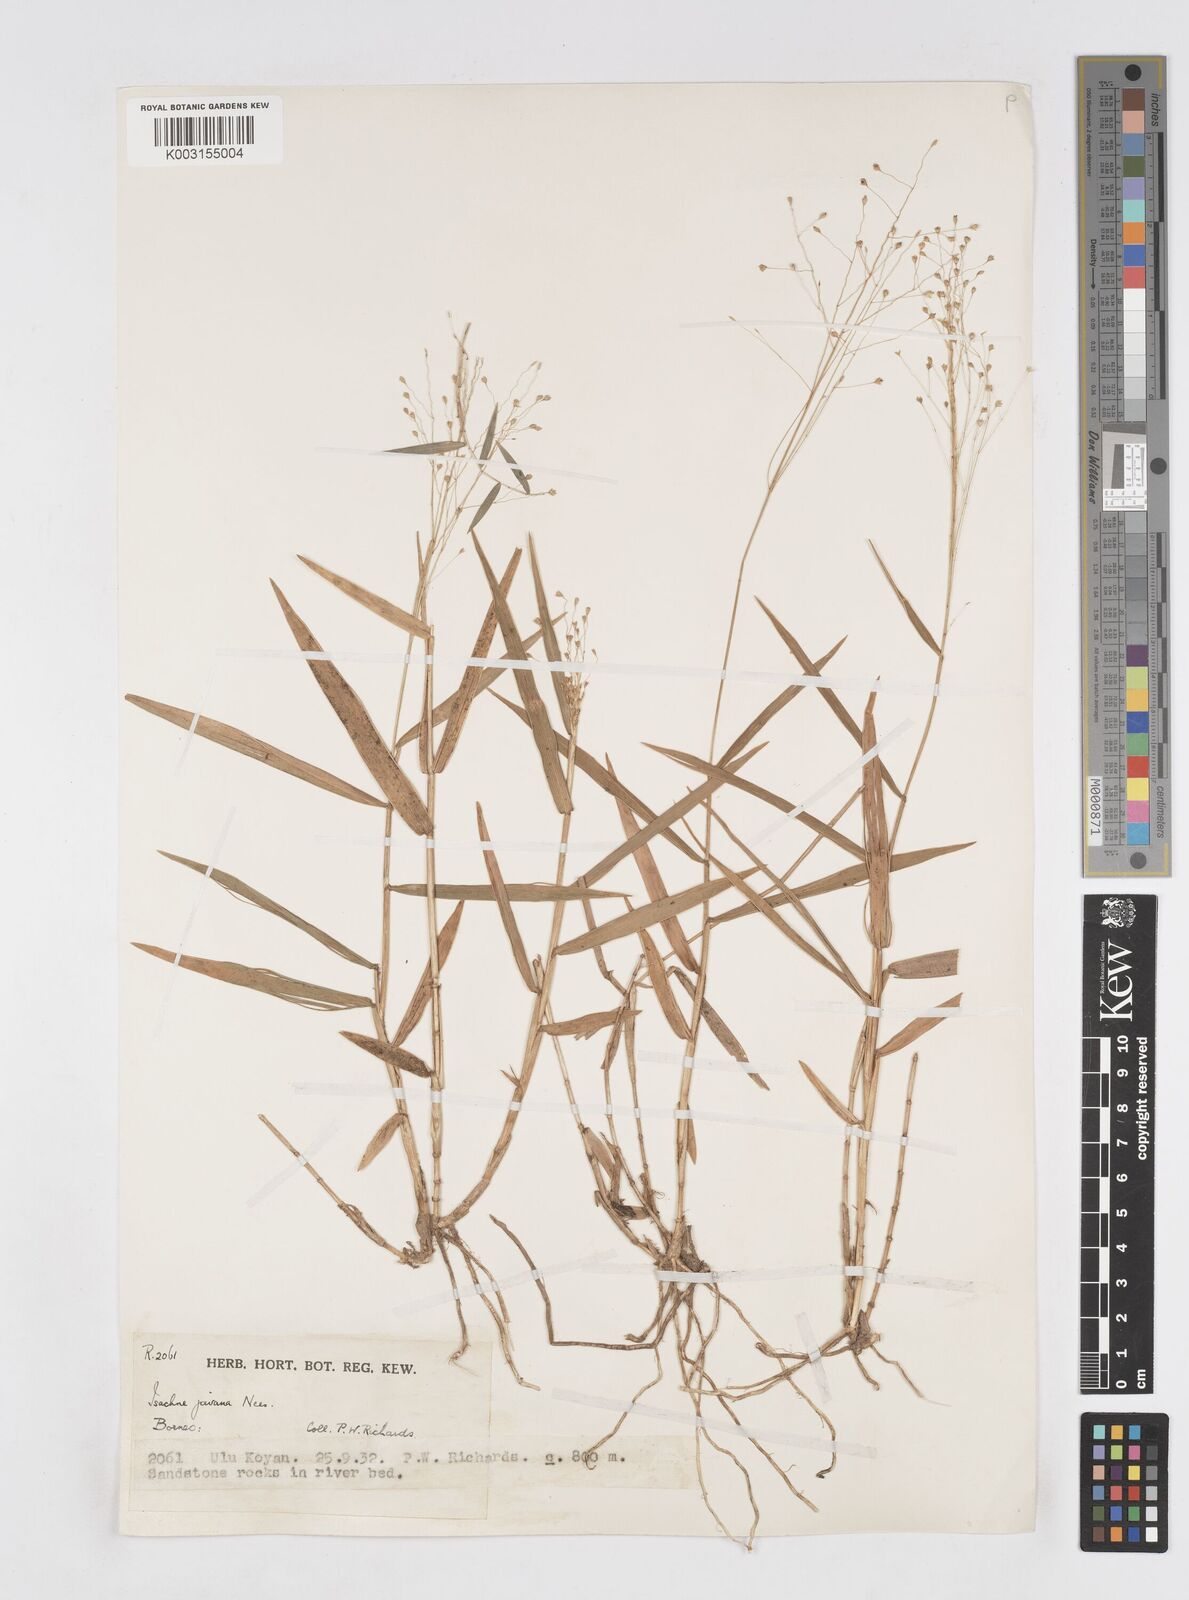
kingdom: Plantae
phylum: Tracheophyta
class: Liliopsida
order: Poales
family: Poaceae
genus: Isachne
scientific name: Isachne kinabaluensis
